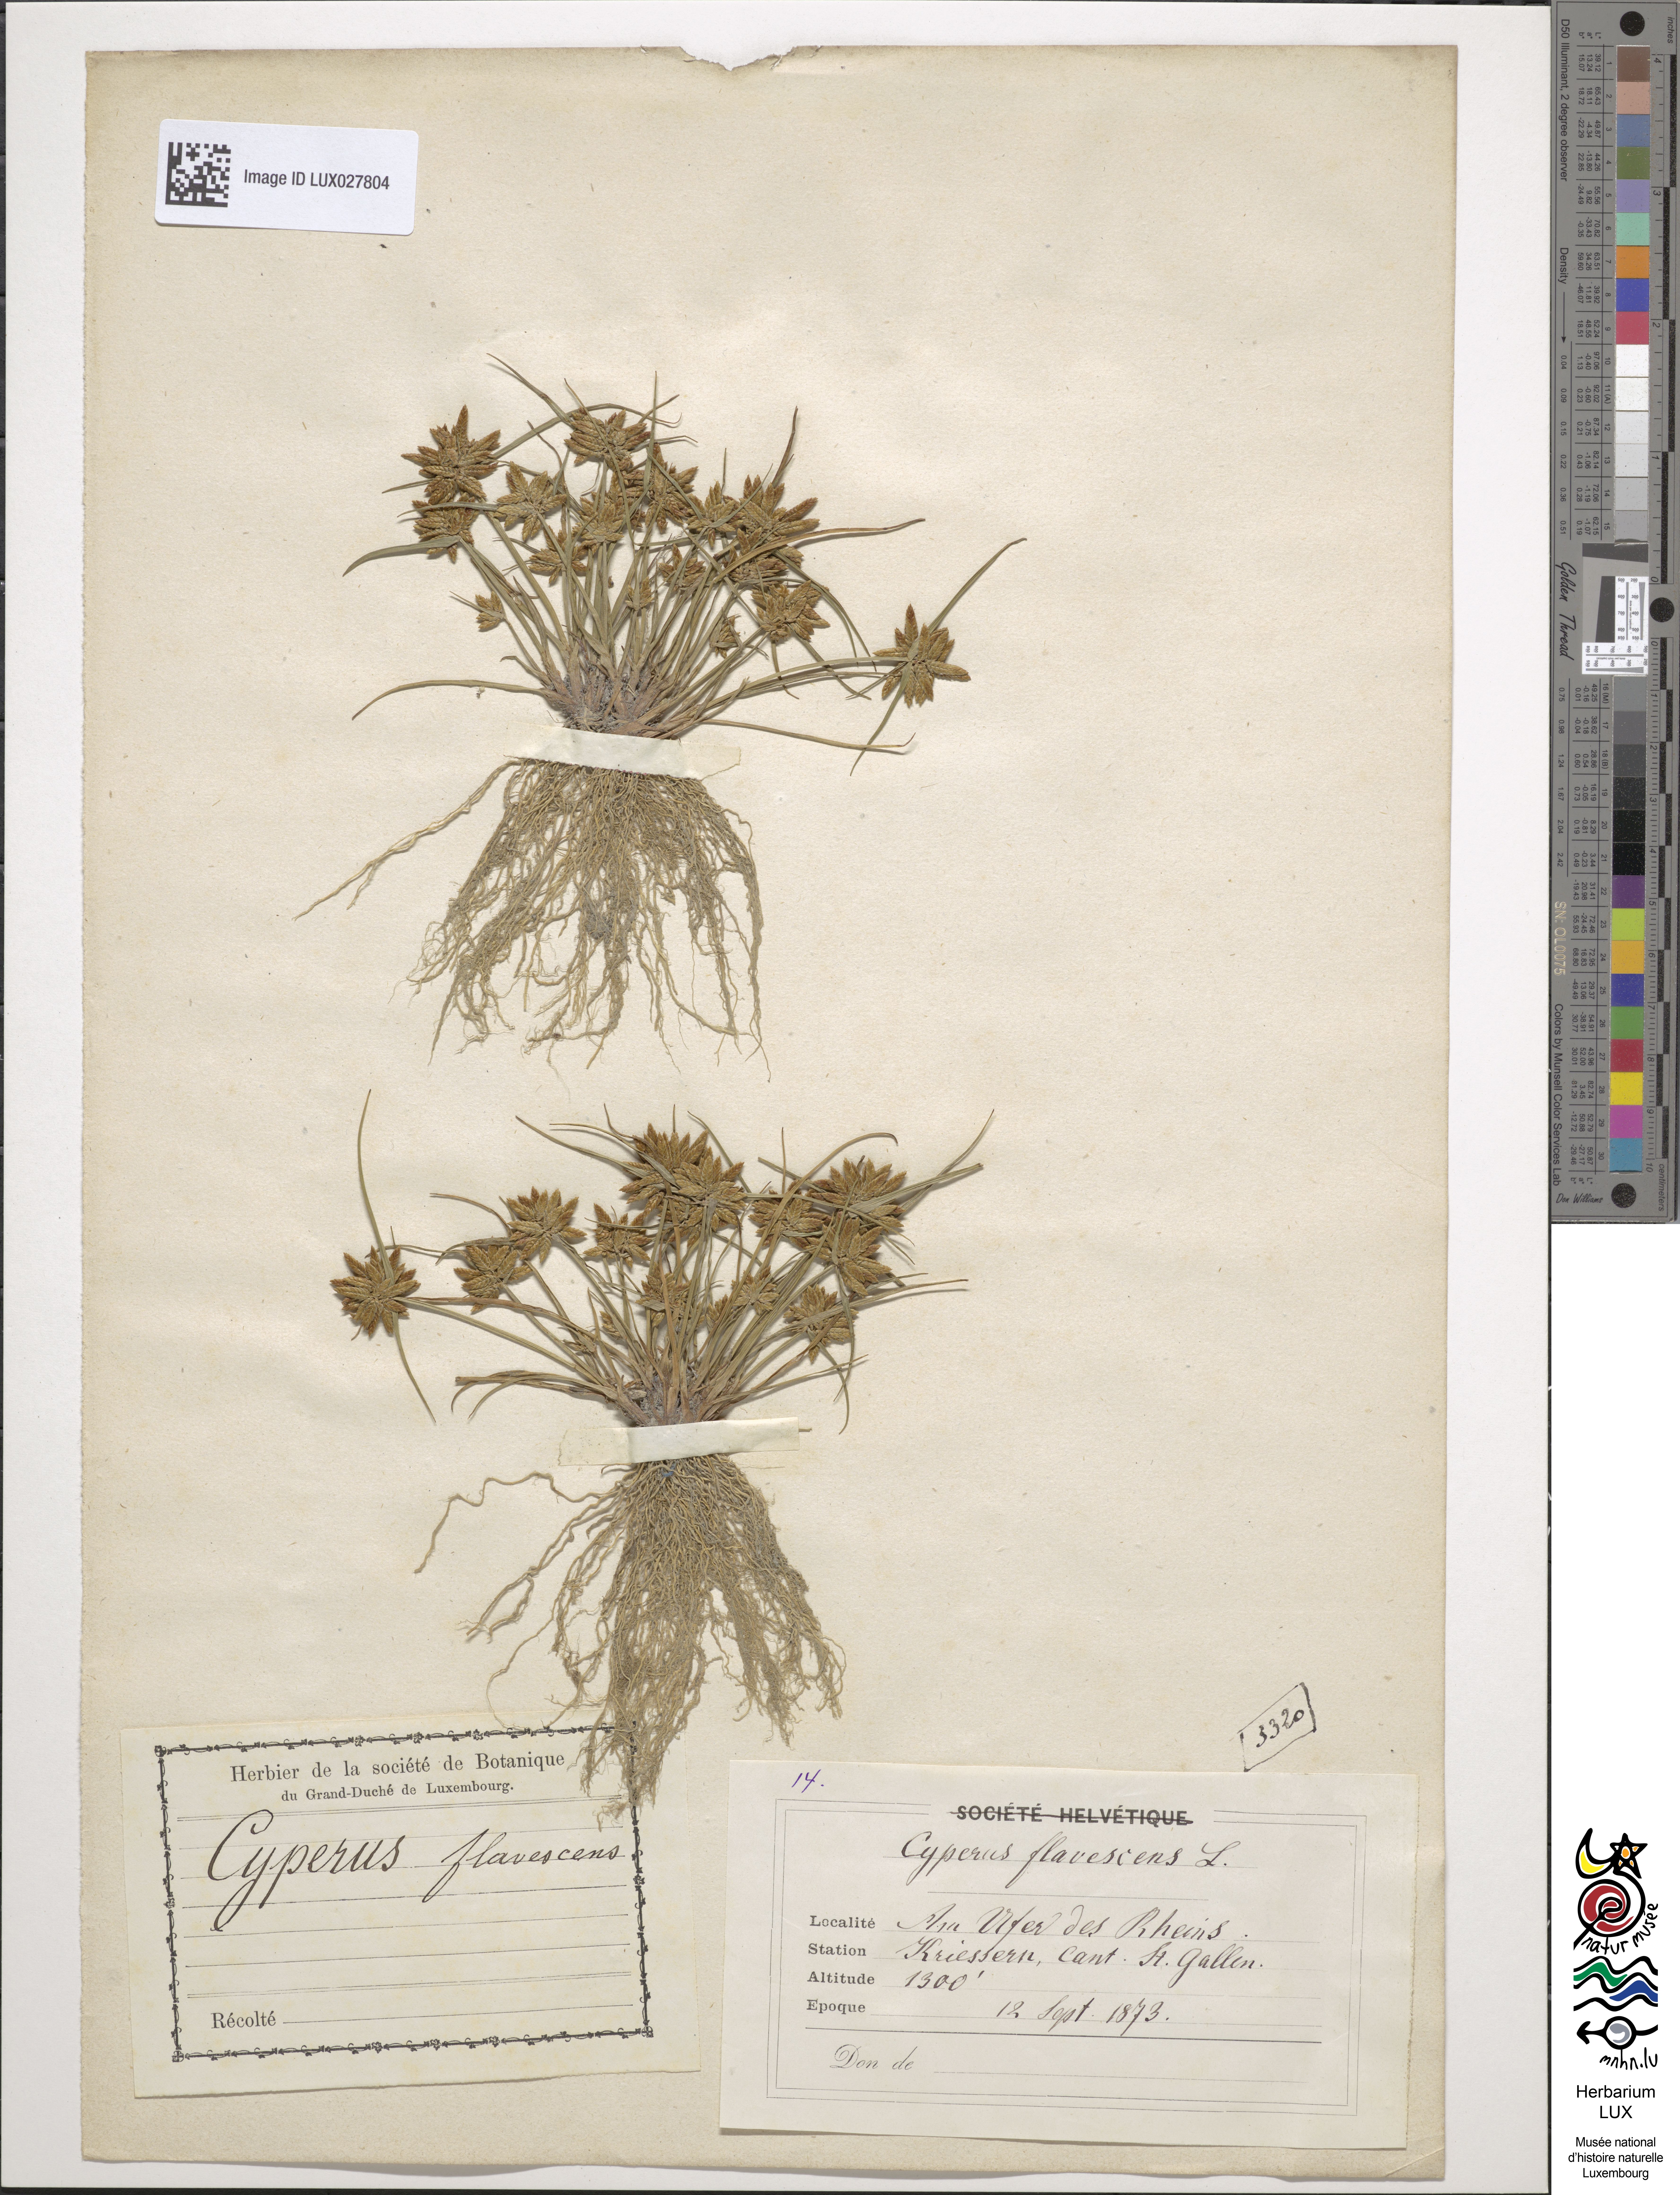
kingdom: Plantae
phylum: Tracheophyta
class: Liliopsida
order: Poales
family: Cyperaceae
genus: Cyperus
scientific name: Cyperus flavescens
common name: Yellow galingale
